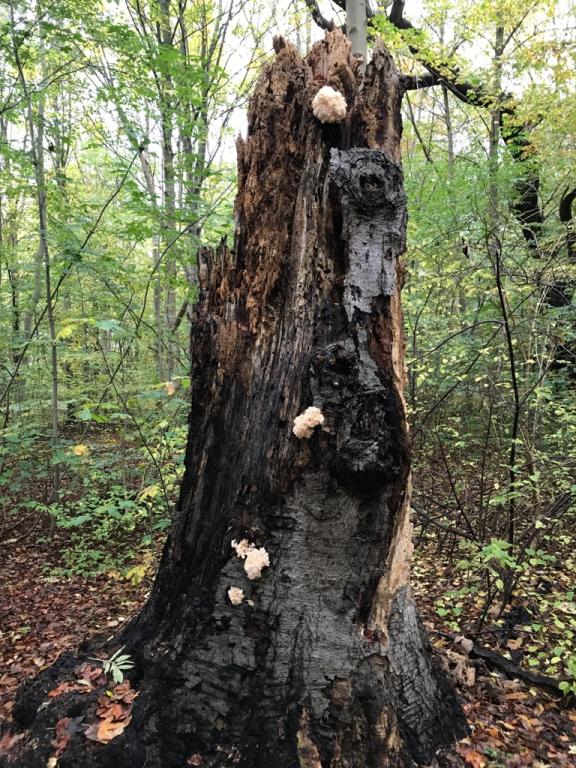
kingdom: Fungi
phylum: Basidiomycota
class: Agaricomycetes
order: Russulales
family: Hericiaceae
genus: Hericium
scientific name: Hericium coralloides
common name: koralpigsvamp
